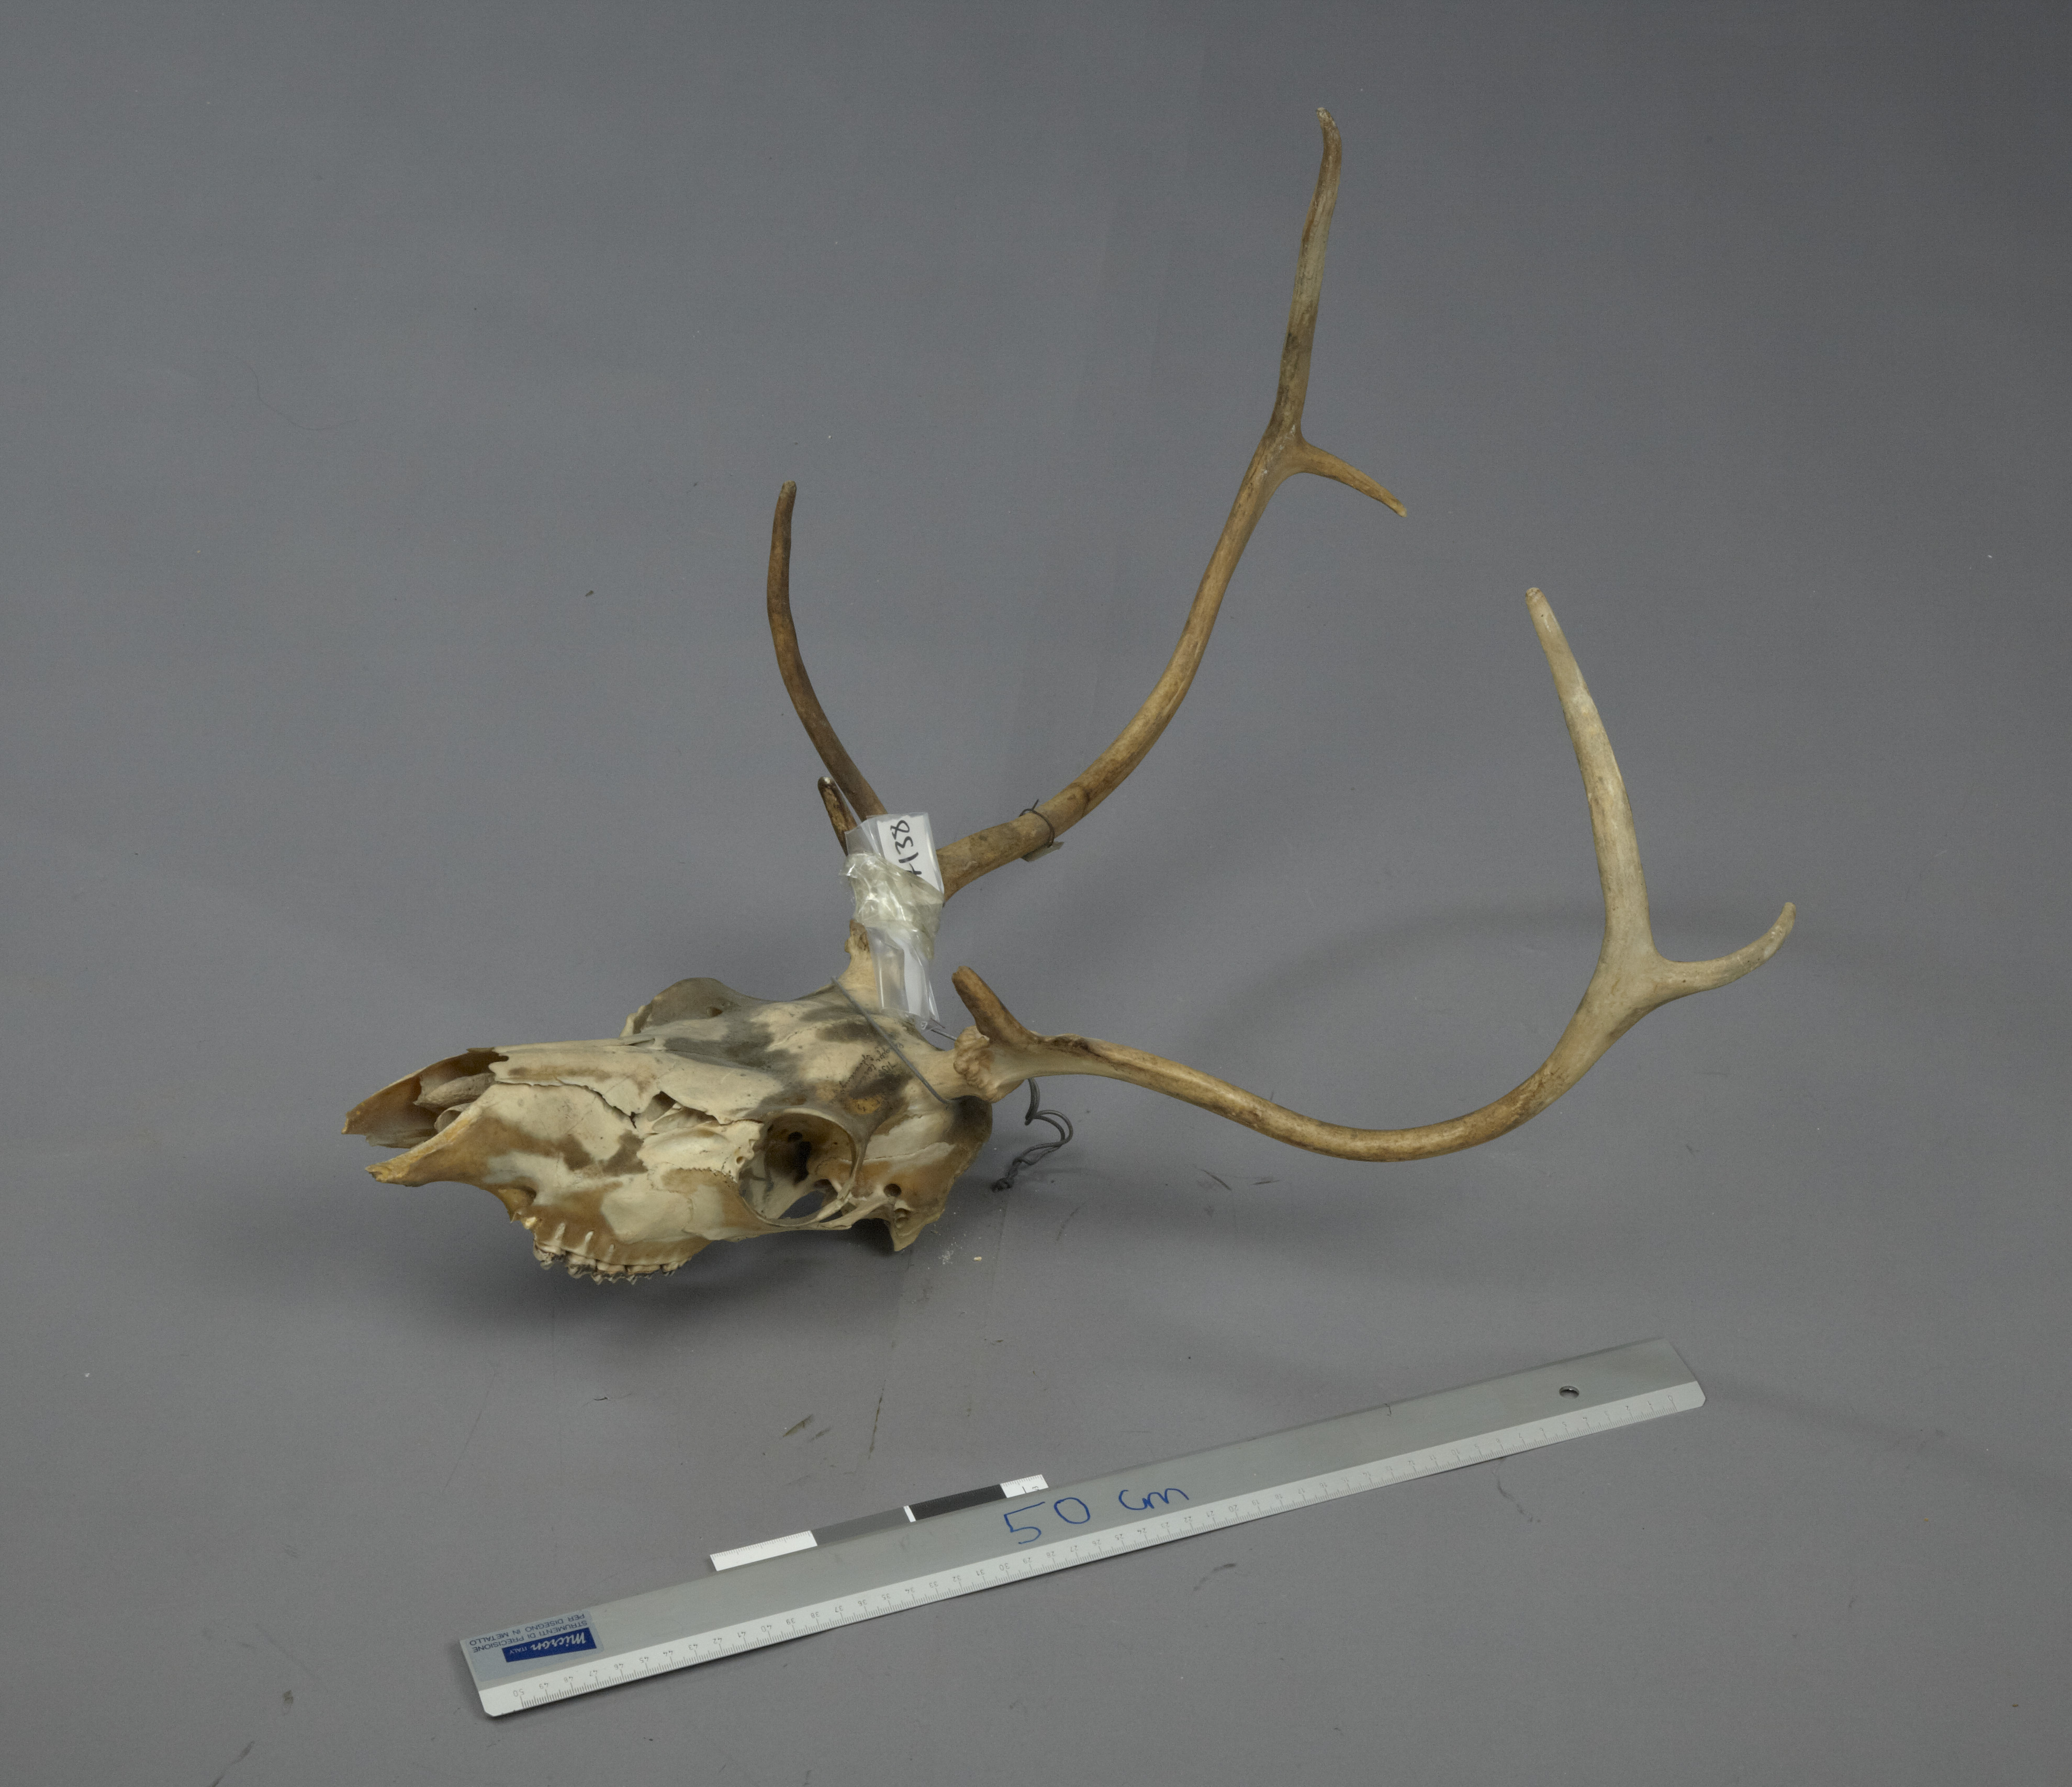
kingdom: Animalia
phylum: Chordata
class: Mammalia
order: Artiodactyla
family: Cervidae
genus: Rangifer
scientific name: Rangifer tarandus
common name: Reindeer
